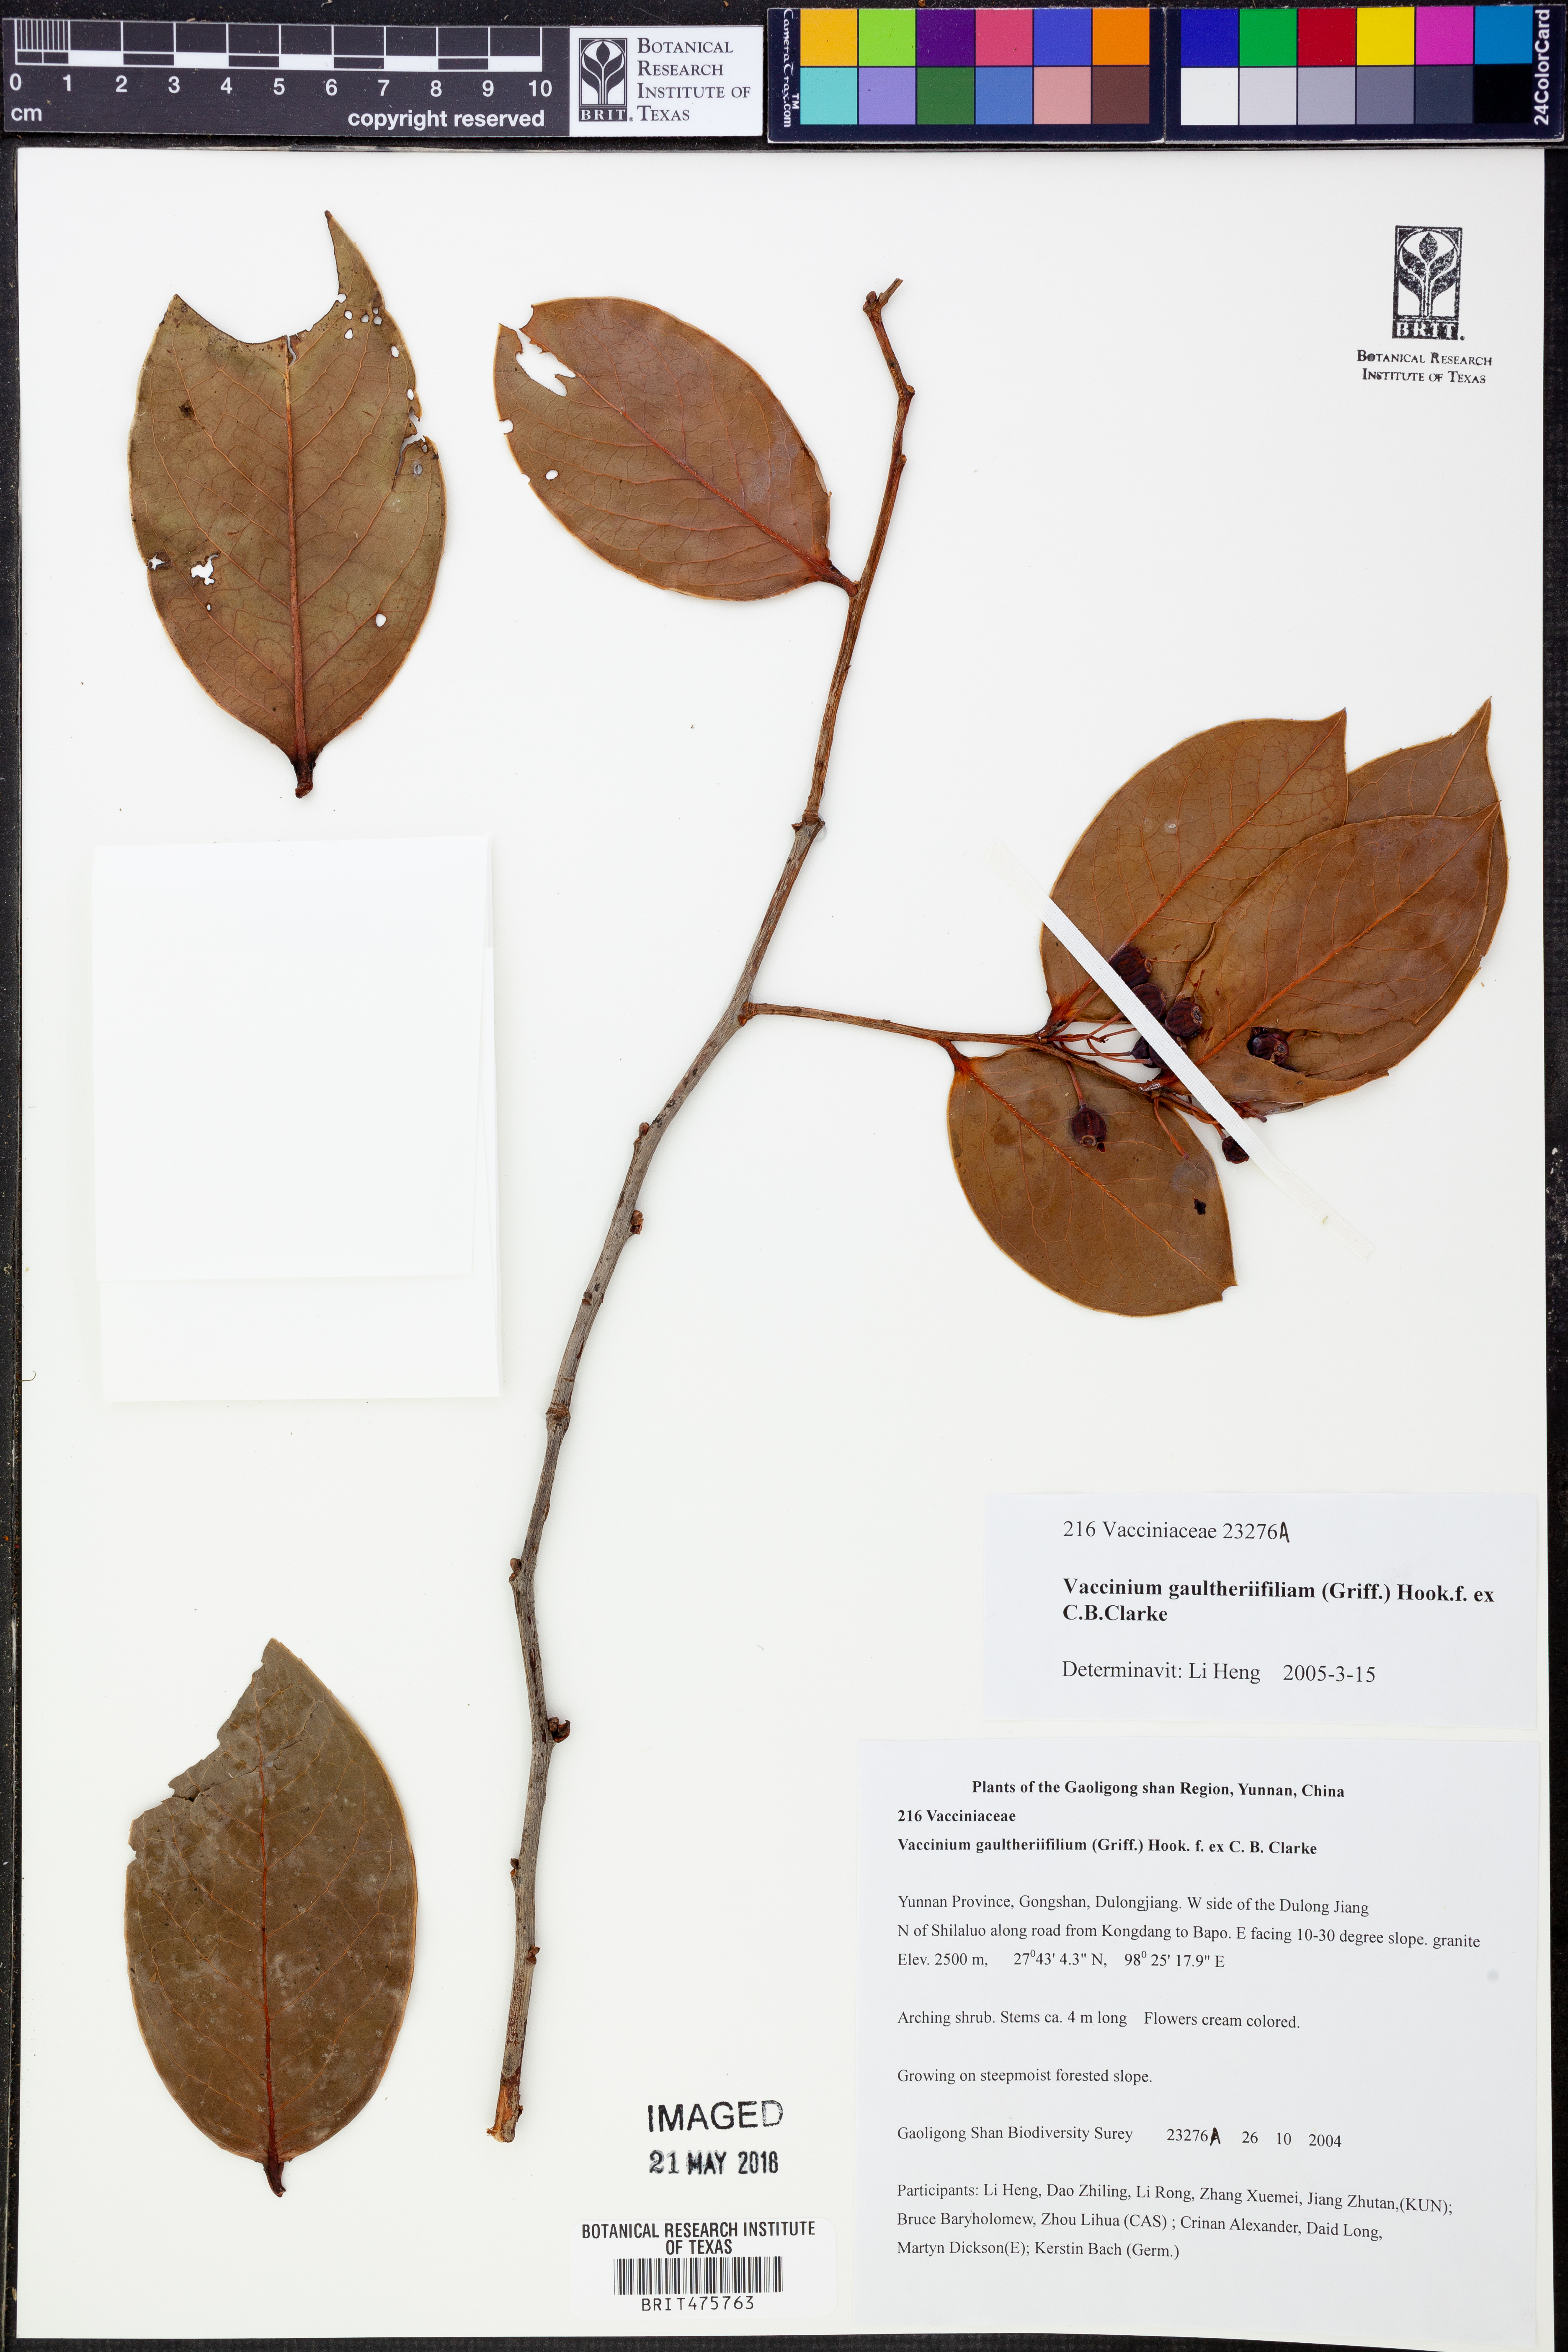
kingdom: Plantae
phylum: Tracheophyta
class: Magnoliopsida
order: Ericales
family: Ericaceae
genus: Vaccinium
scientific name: Vaccinium gaultheriifolium
